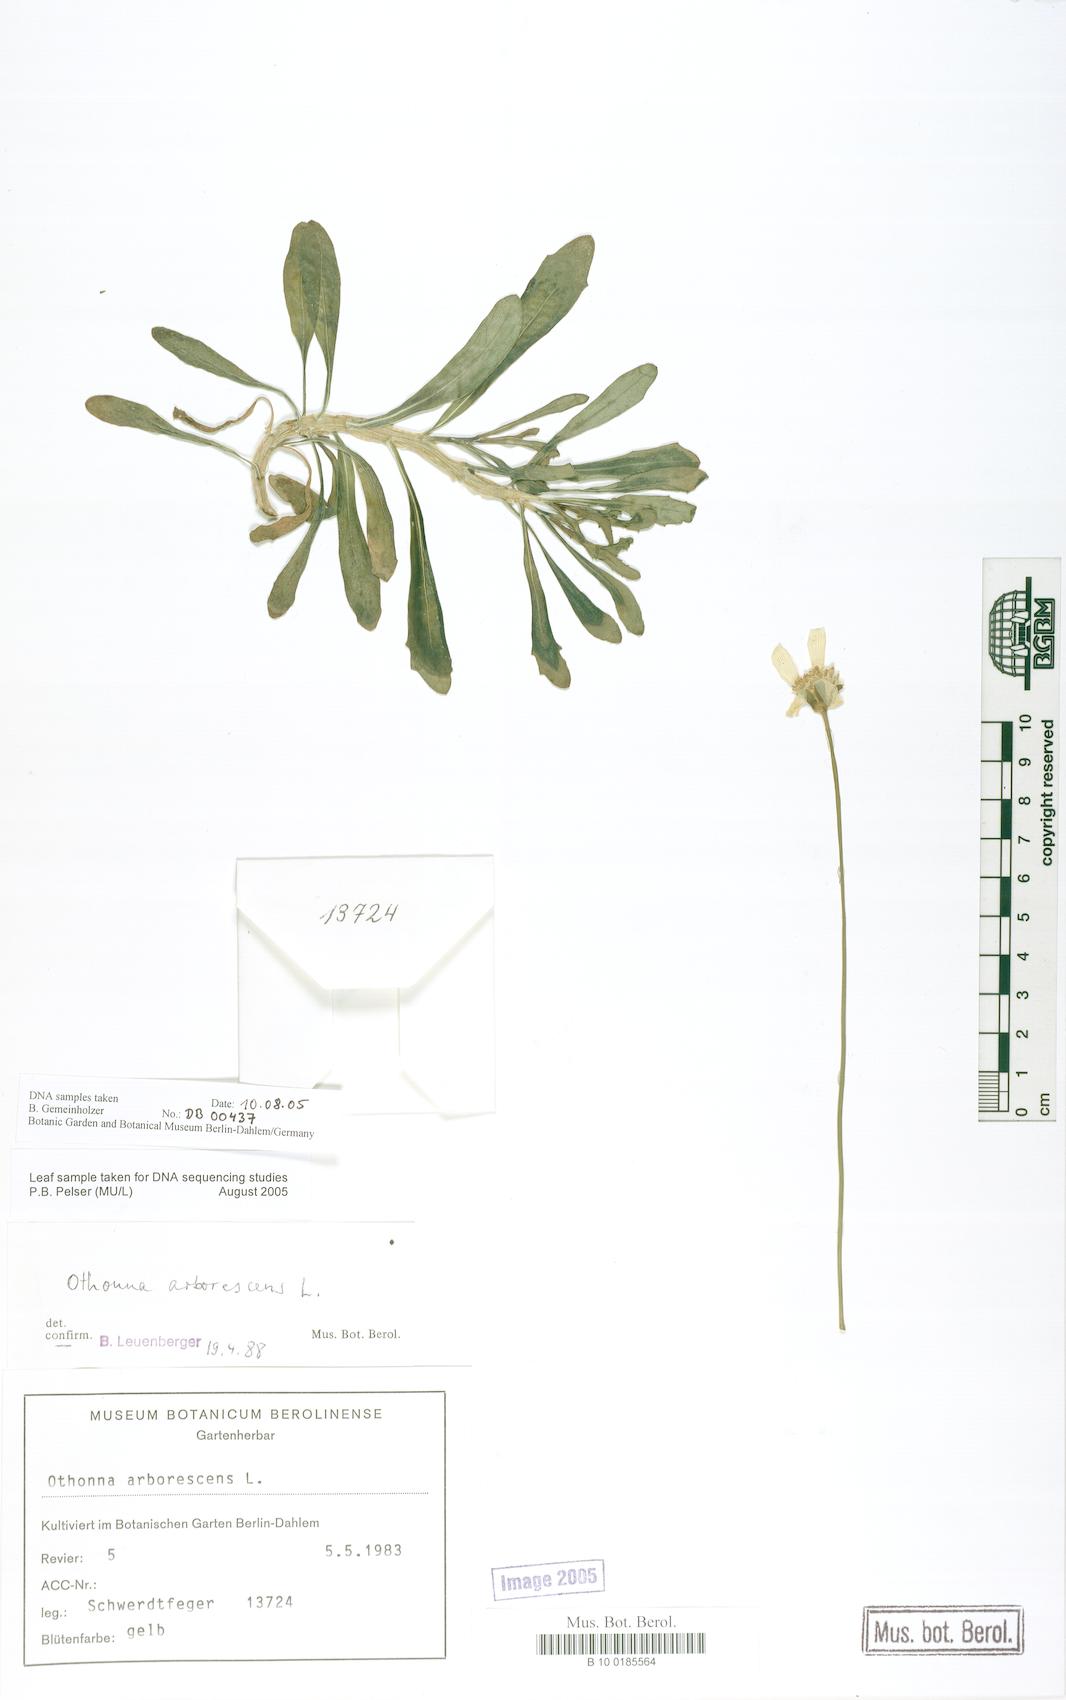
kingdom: Plantae
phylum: Tracheophyta
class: Magnoliopsida
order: Asterales
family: Asteraceae
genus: Othonna
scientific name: Othonna arborescens
